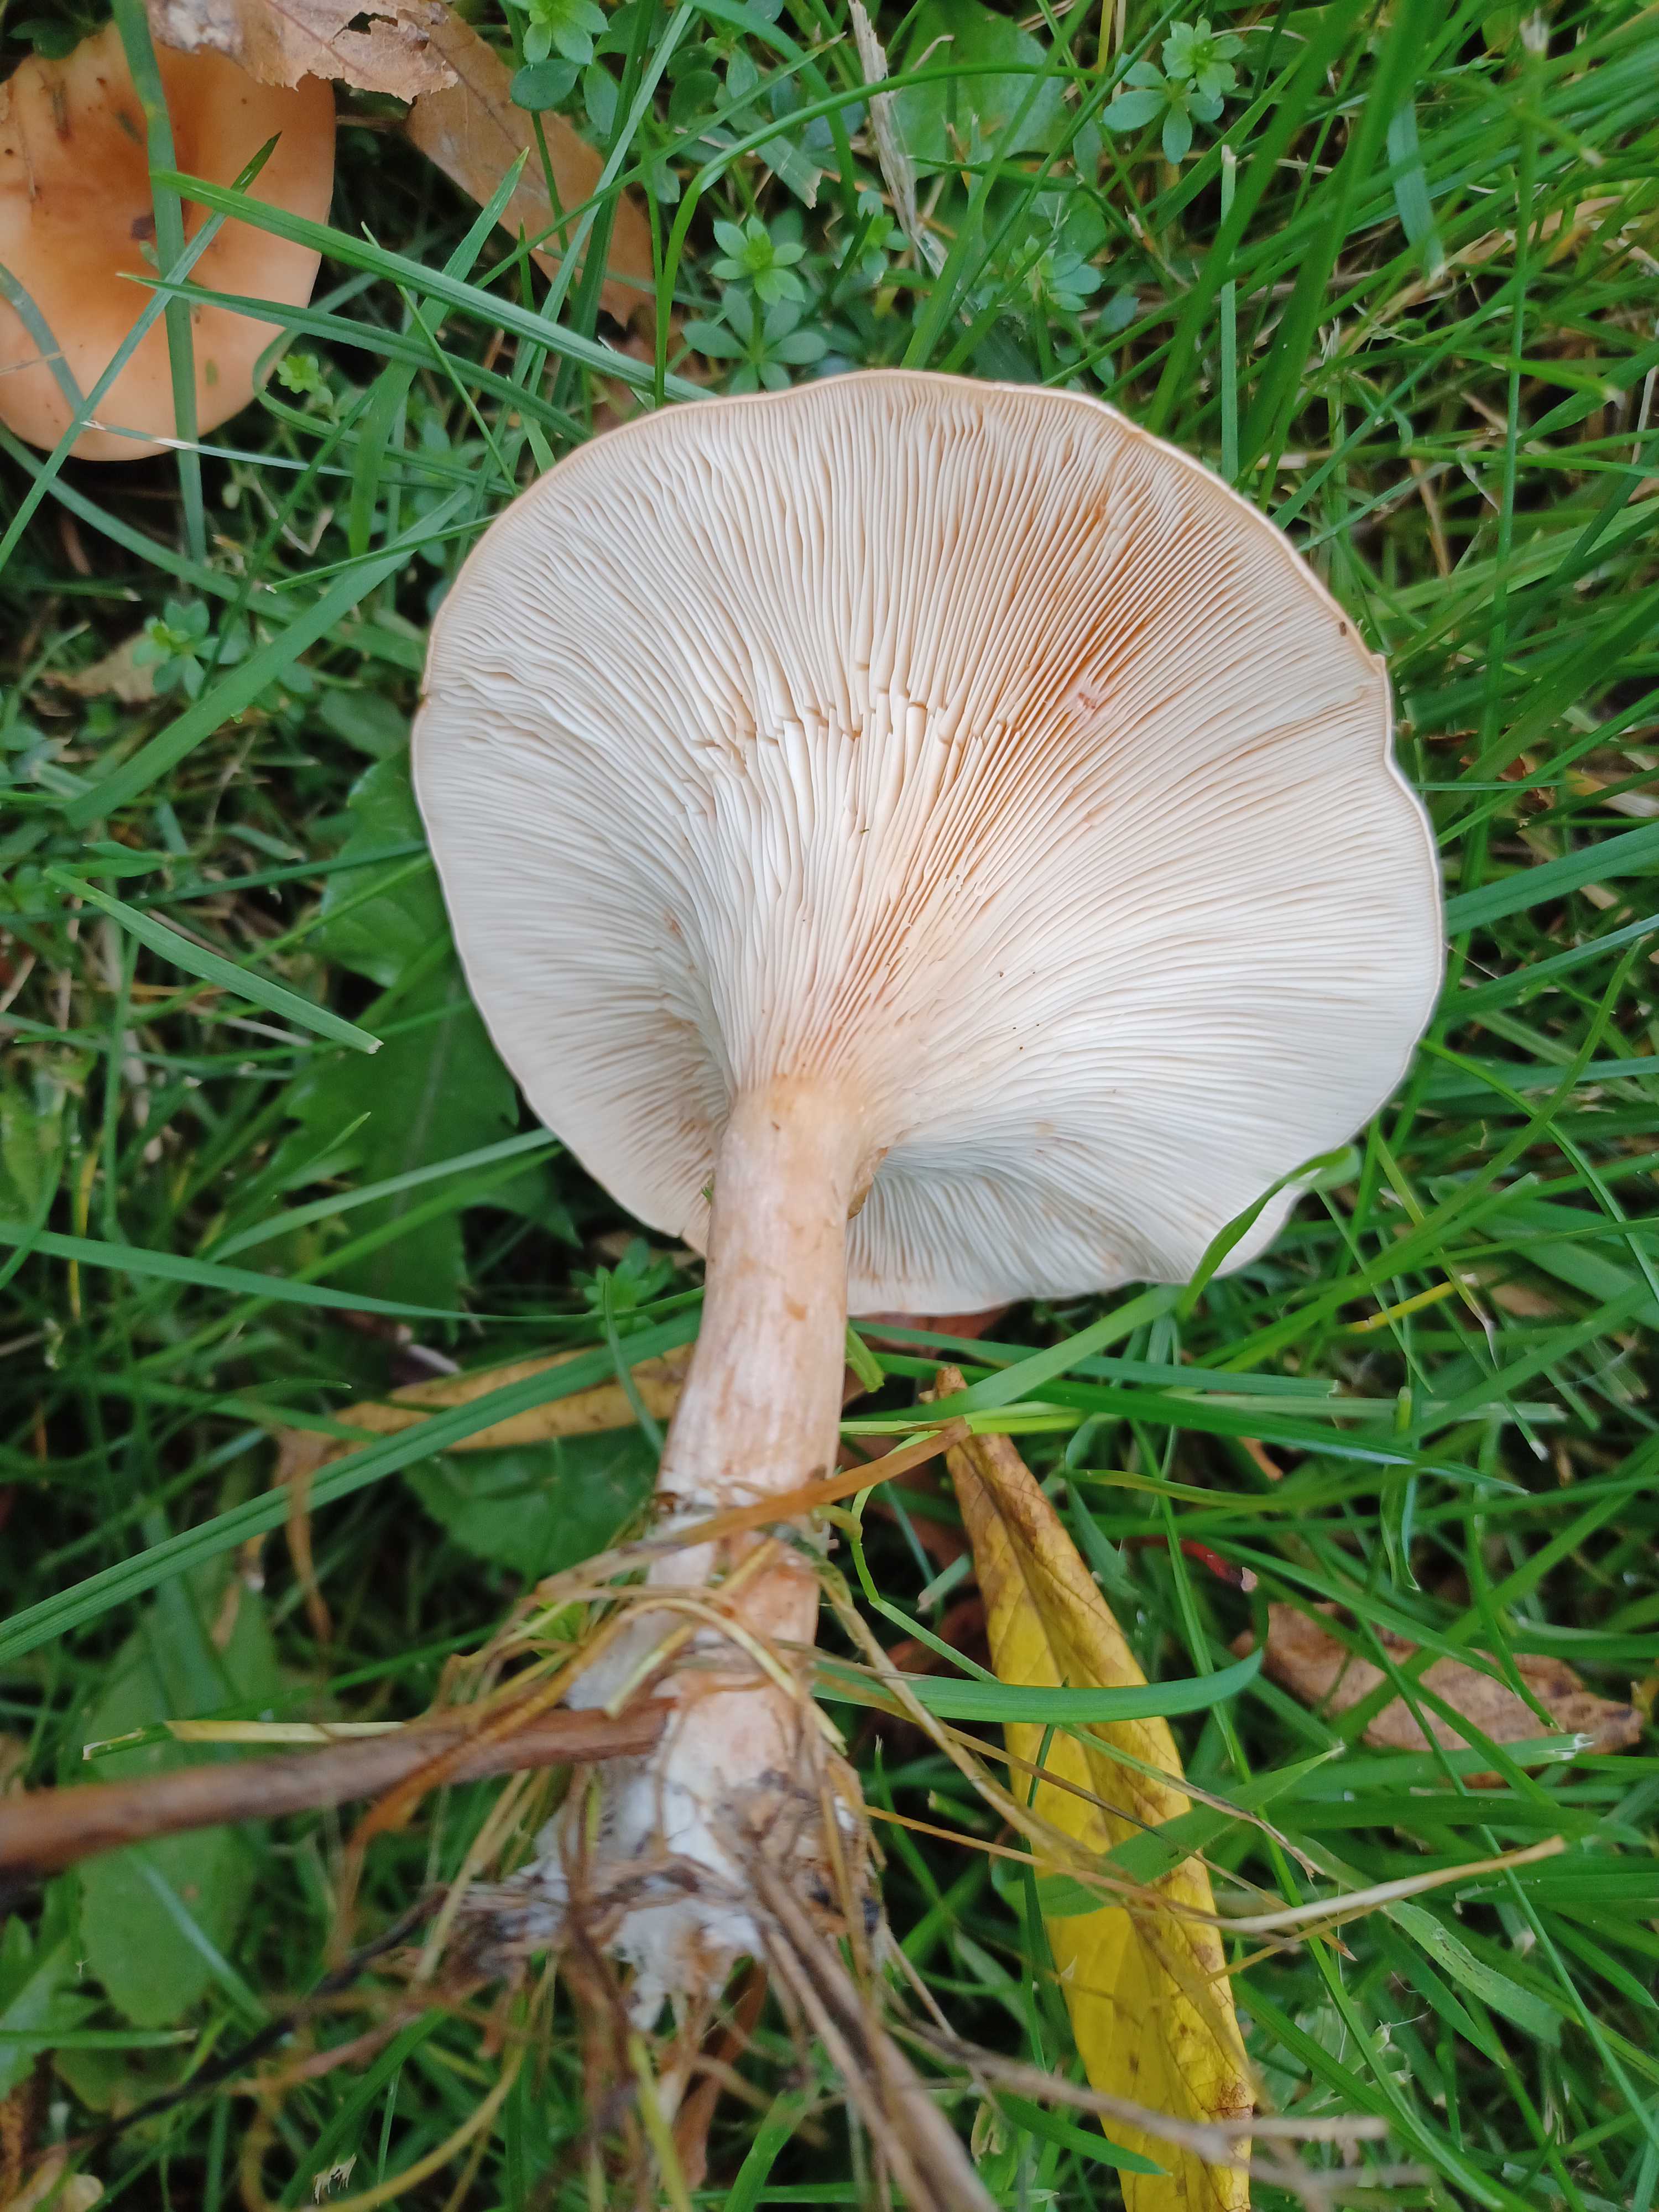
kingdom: Fungi
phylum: Basidiomycota
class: Agaricomycetes
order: Agaricales
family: Tricholomataceae
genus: Paralepista
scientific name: Paralepista flaccida
